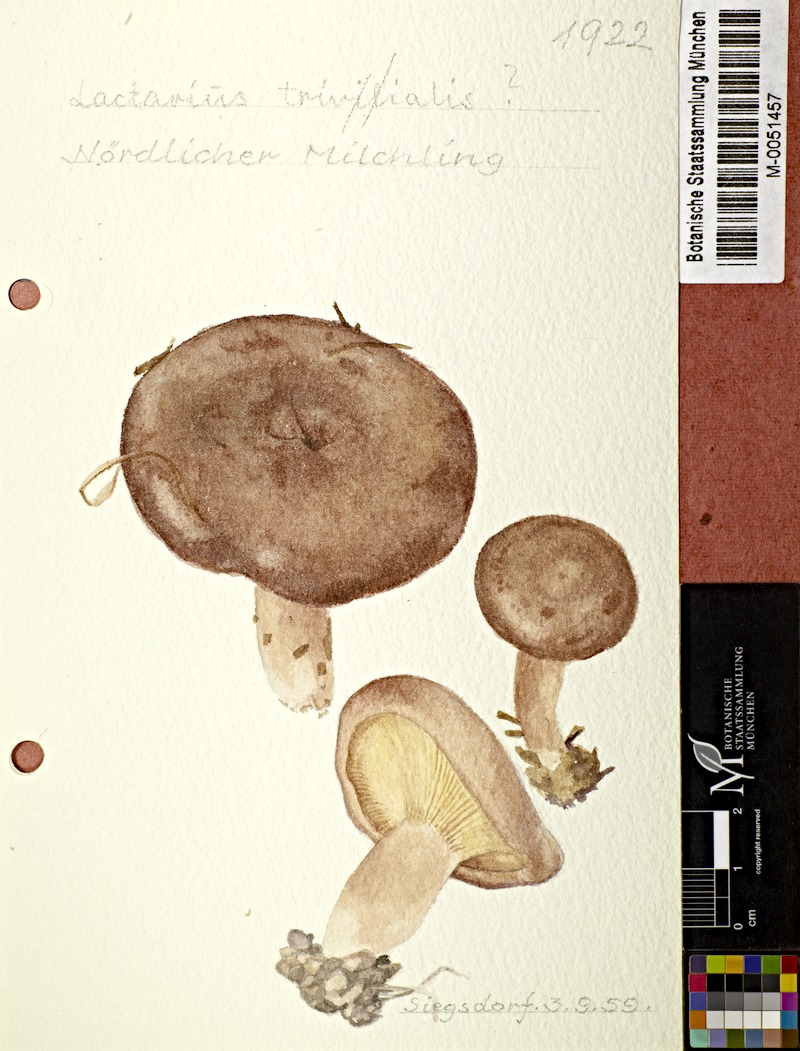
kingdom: Fungi
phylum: Basidiomycota
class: Agaricomycetes
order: Russulales
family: Russulaceae
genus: Lactarius
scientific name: Lactarius trivialis
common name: Tacked milkcap
